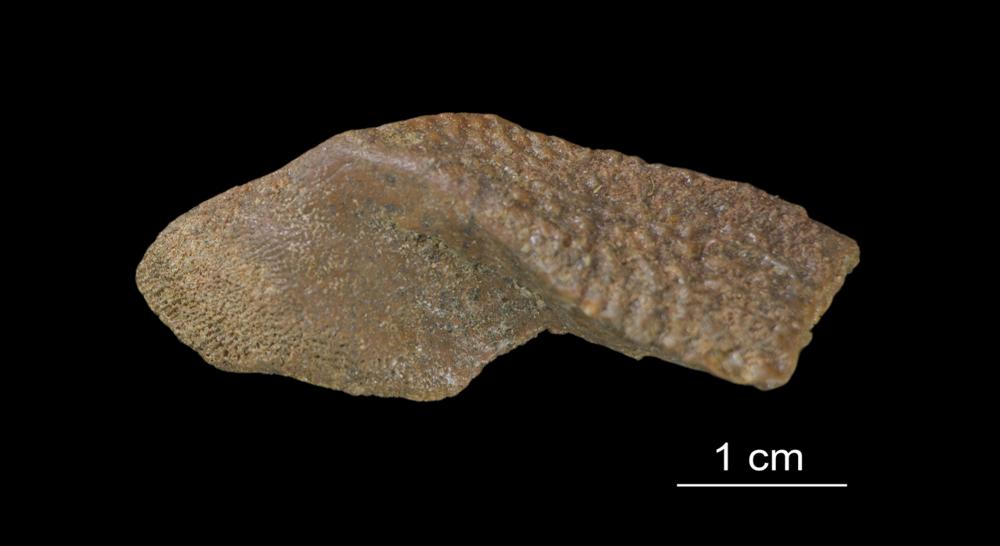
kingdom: Animalia
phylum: Chordata
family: Asterolepididae
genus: Asterolepis
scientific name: Asterolepis ornata
